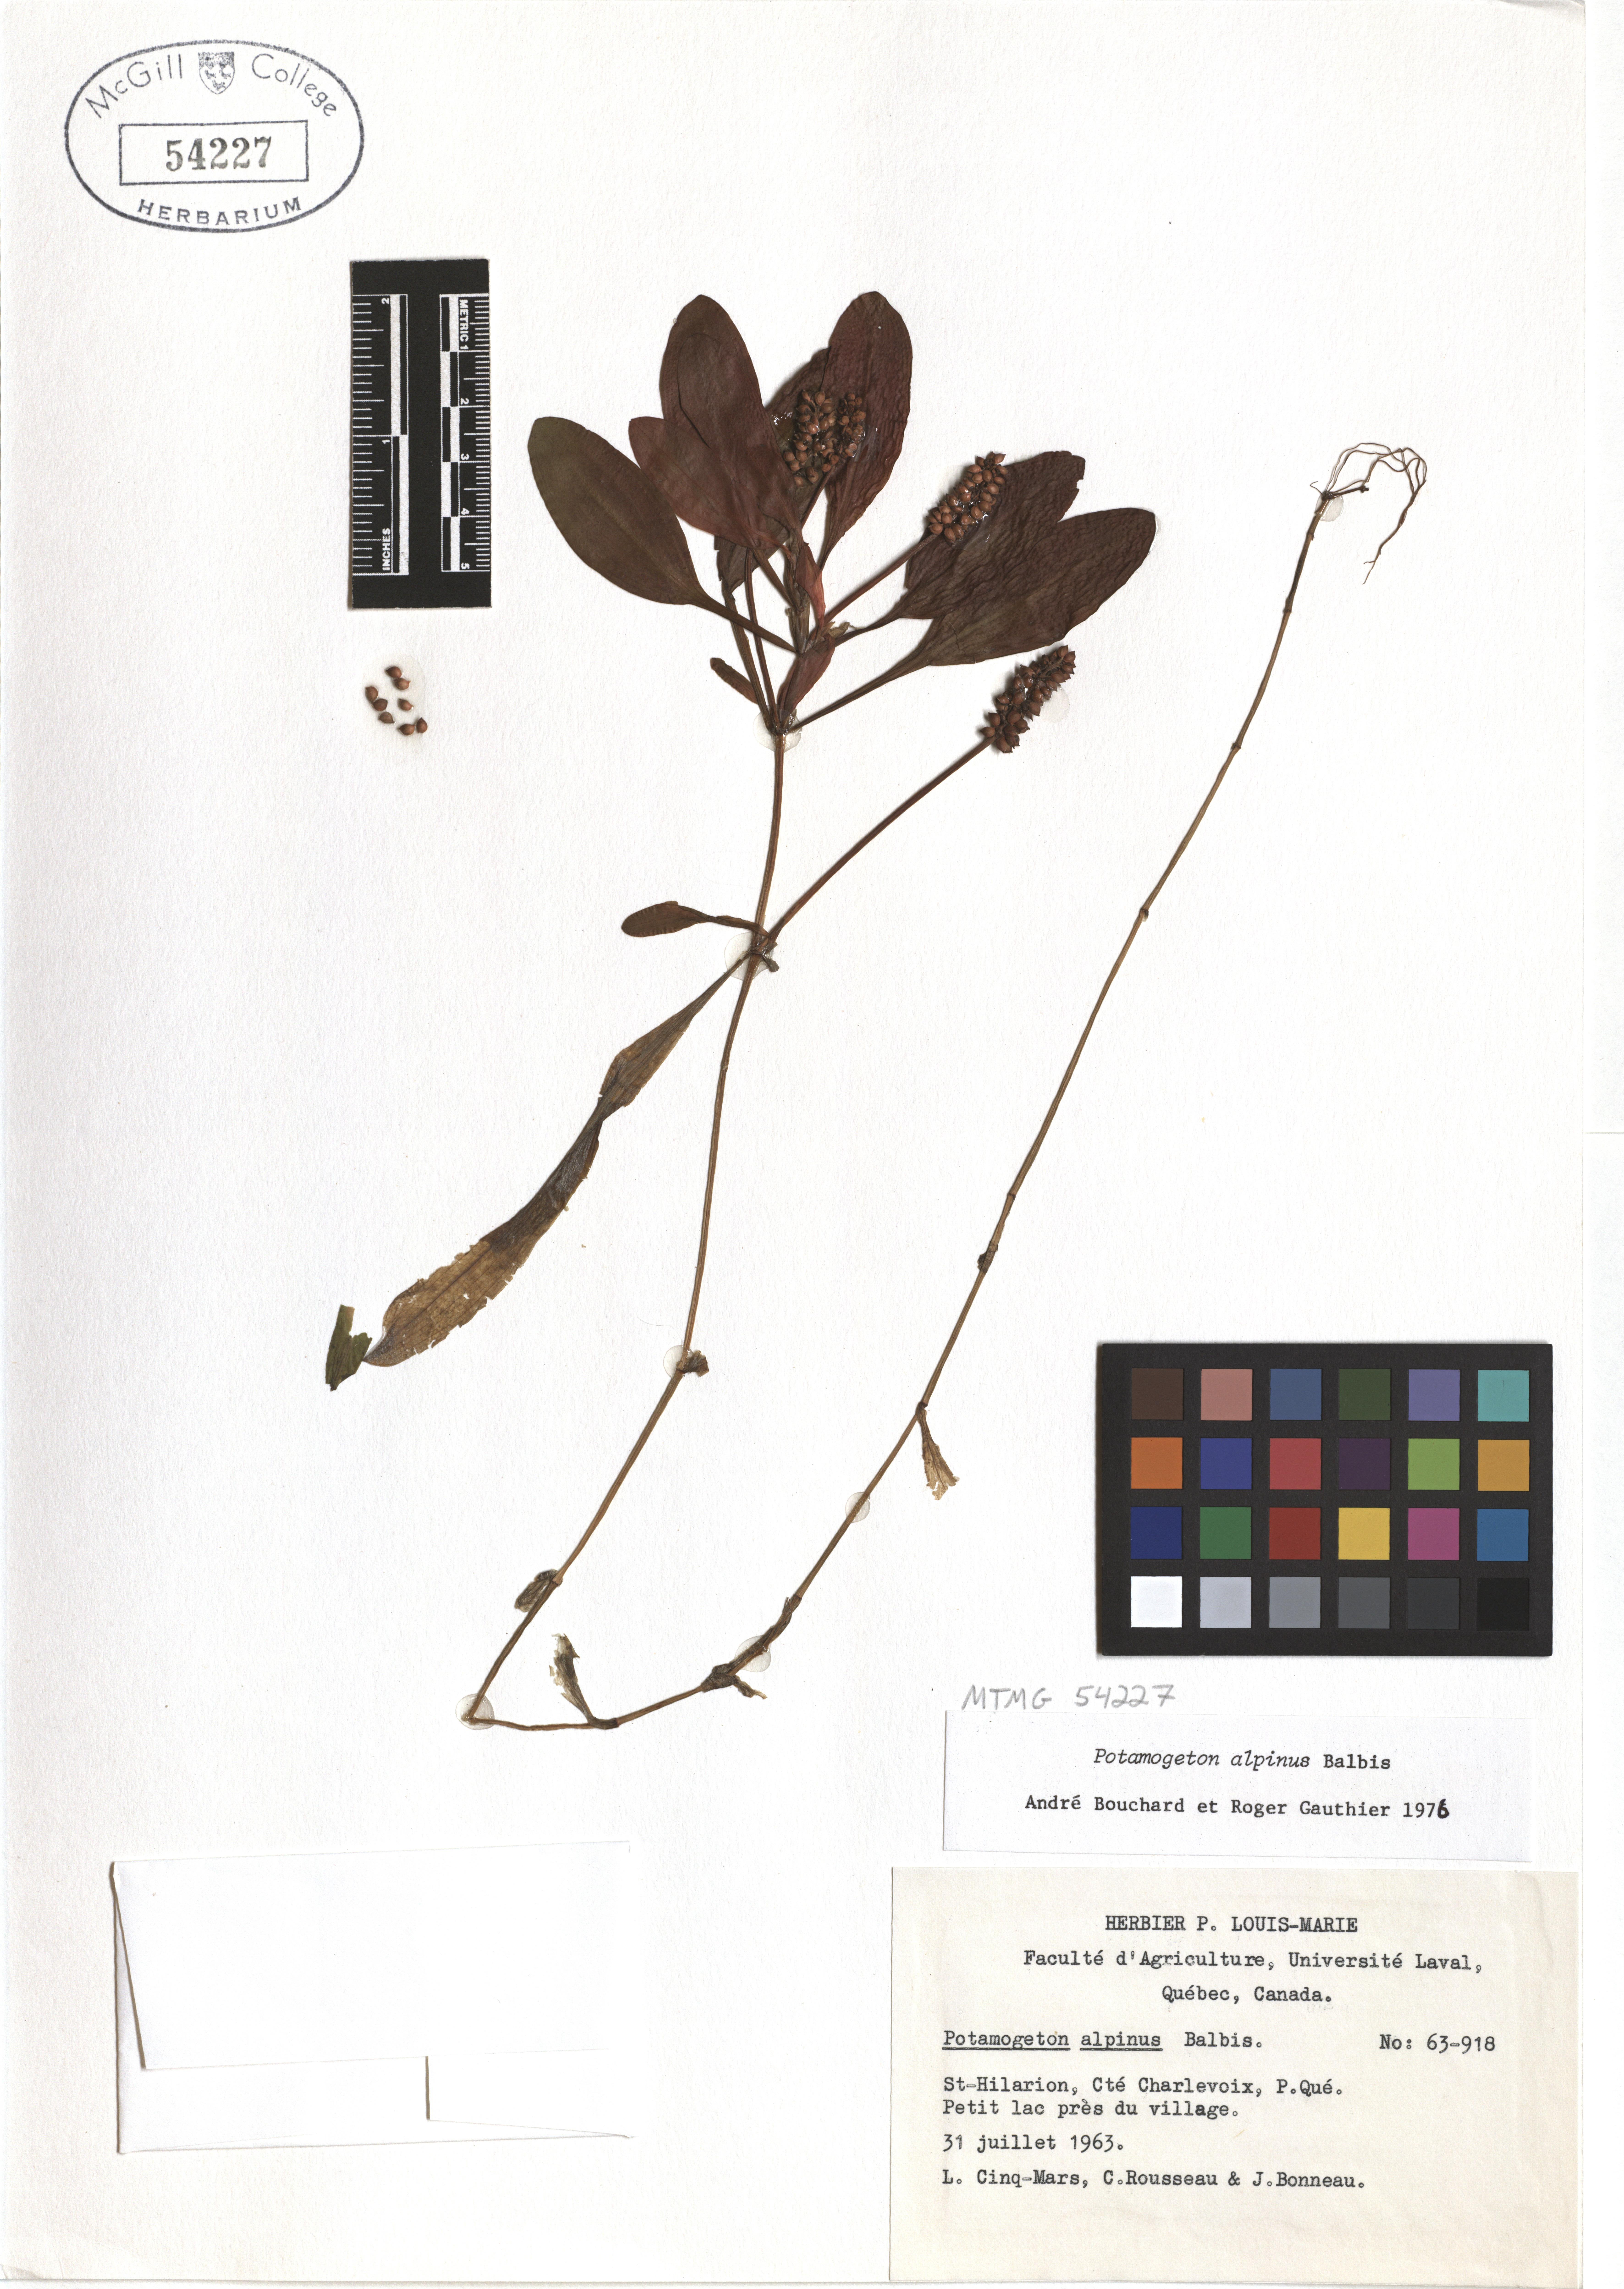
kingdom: Plantae
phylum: Tracheophyta
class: Liliopsida
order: Alismatales
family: Potamogetonaceae
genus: Potamogeton
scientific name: Potamogeton alpinus
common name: Red pondweed
